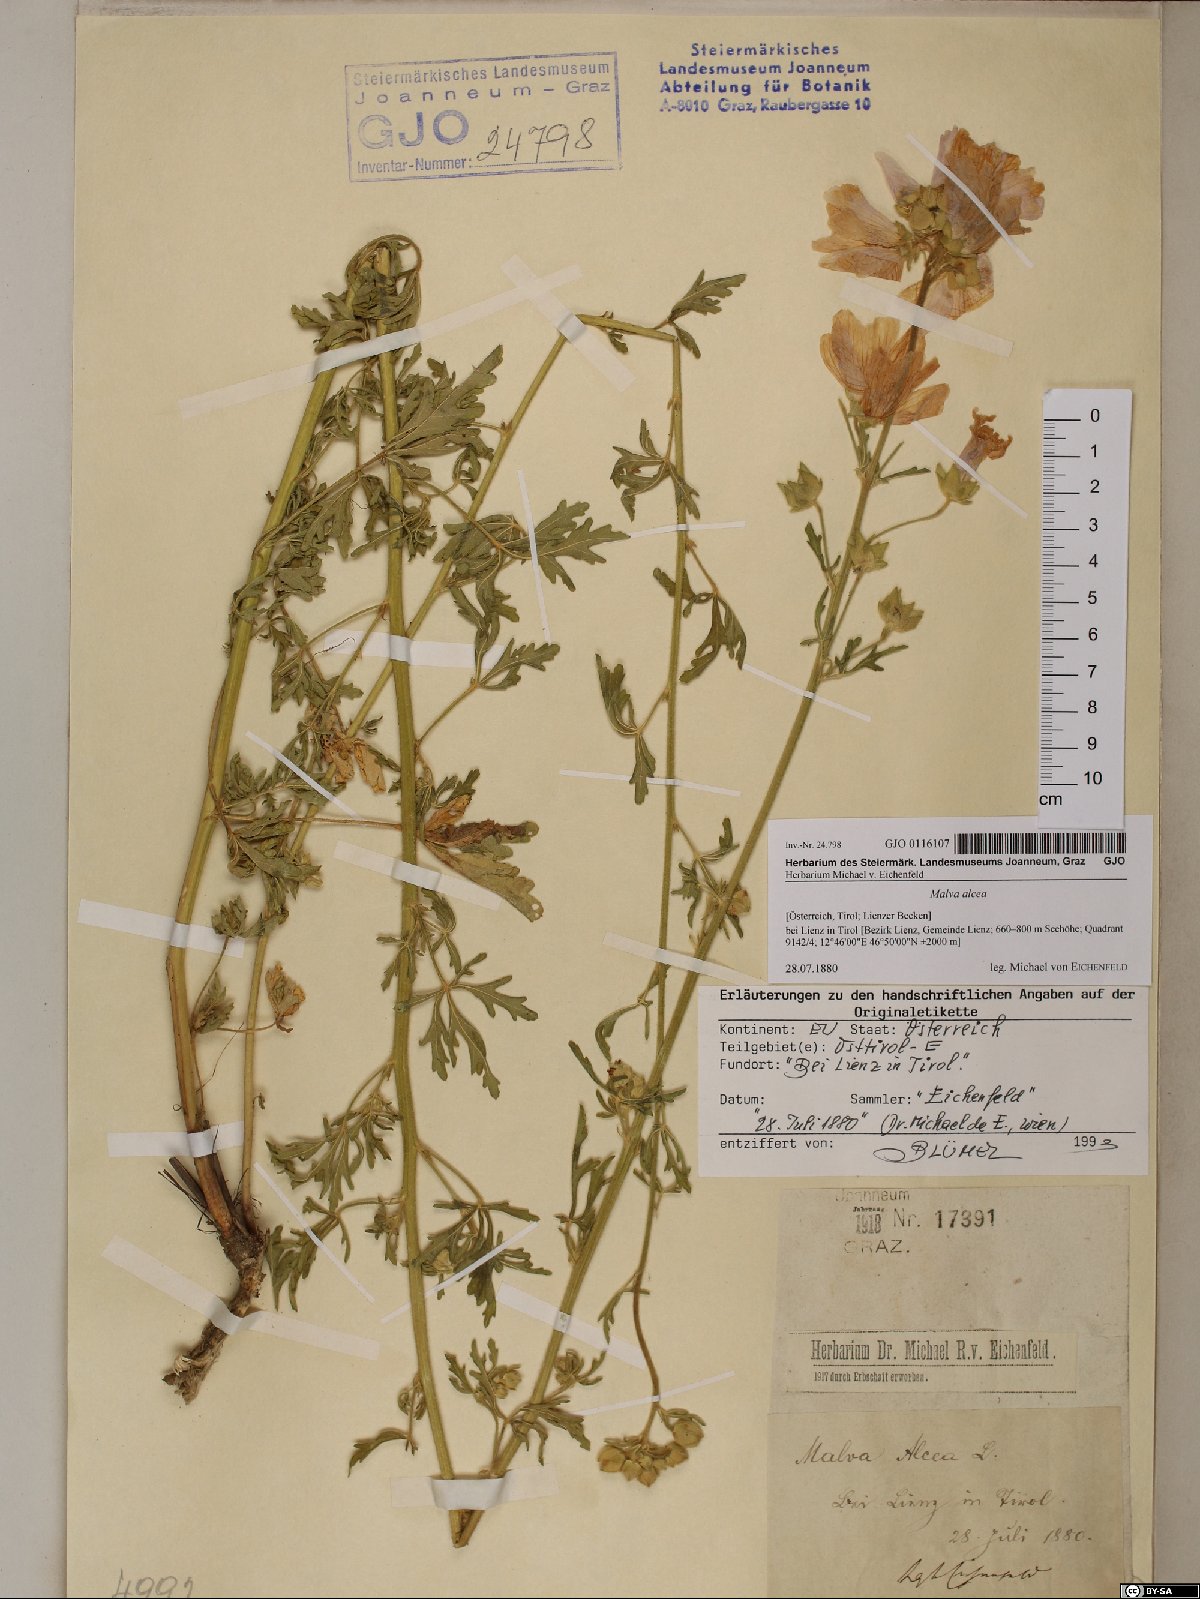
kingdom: Plantae
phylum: Tracheophyta
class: Magnoliopsida
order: Malvales
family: Malvaceae
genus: Malva
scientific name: Malva alcea
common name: Greater musk-mallow
